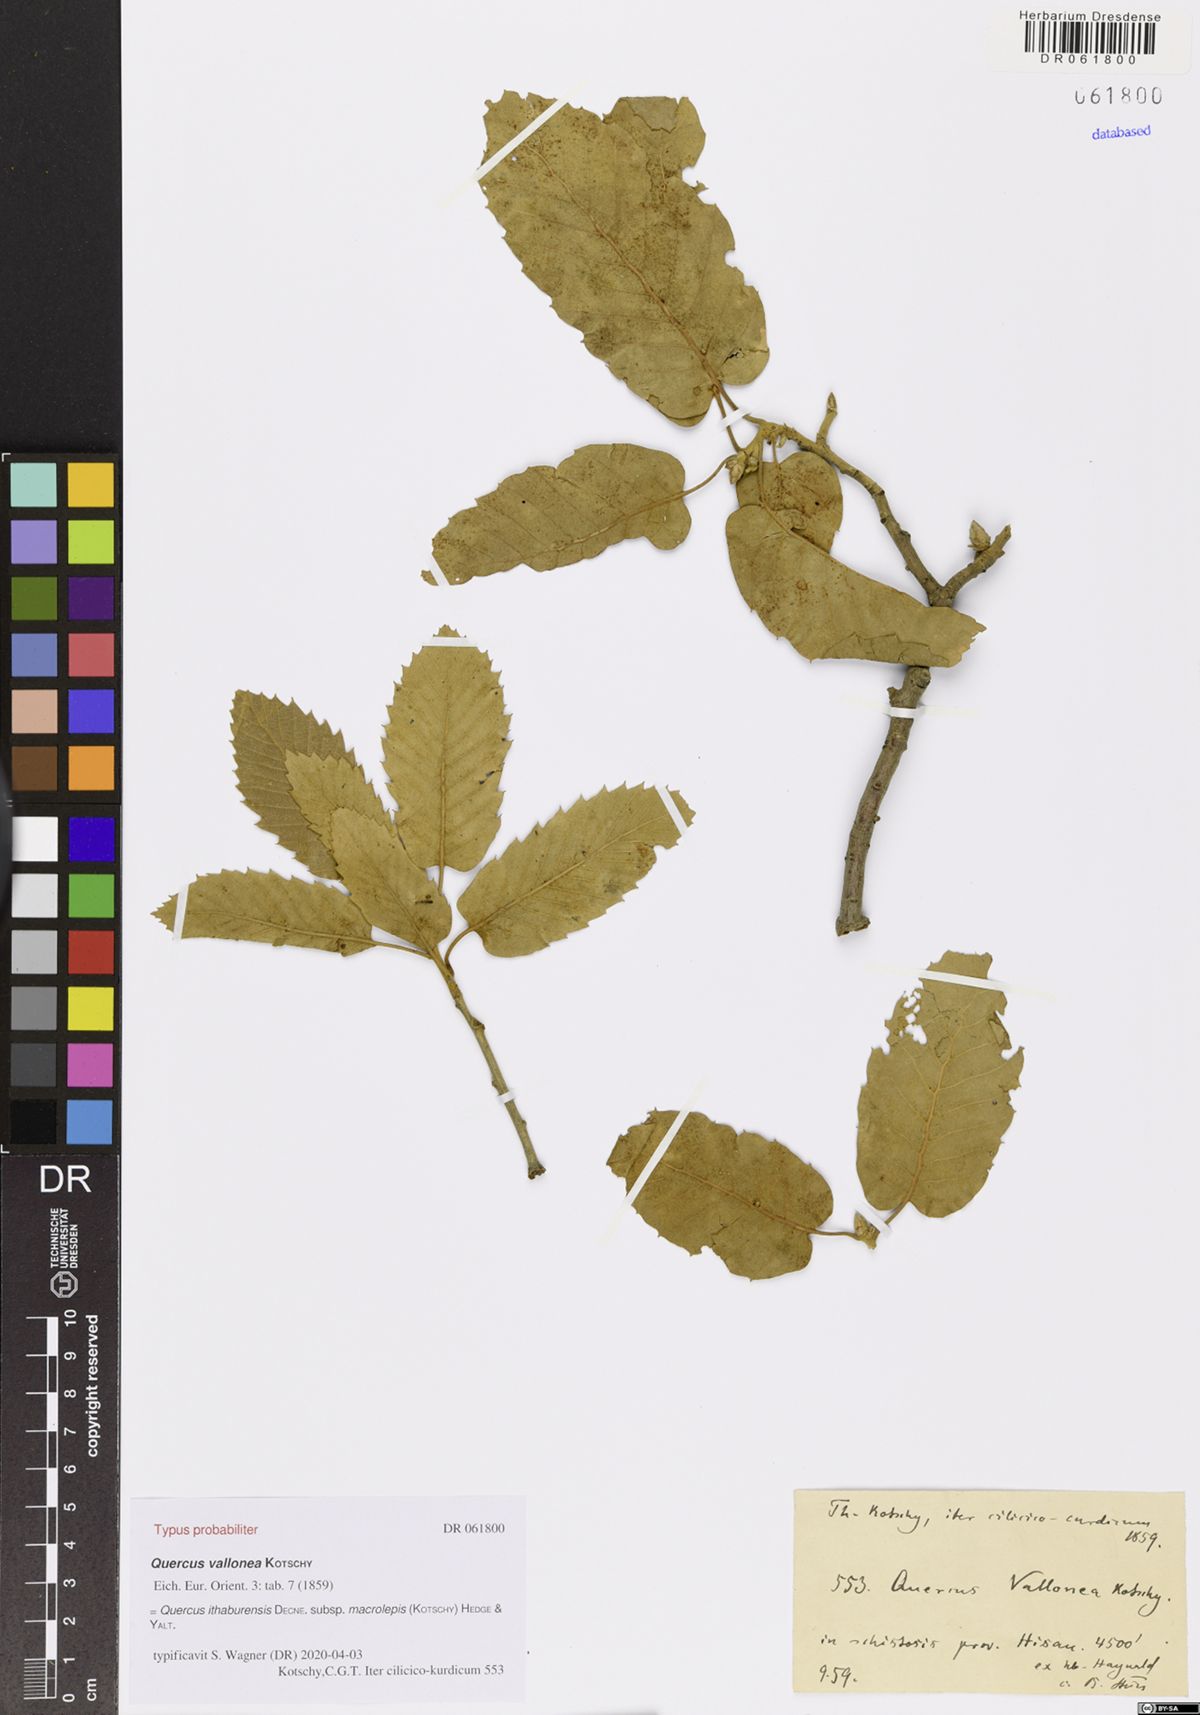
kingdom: Plantae
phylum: Tracheophyta
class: Magnoliopsida
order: Fagales
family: Fagaceae
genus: Quercus
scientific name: Quercus ithaburensis
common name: Tabor oak
